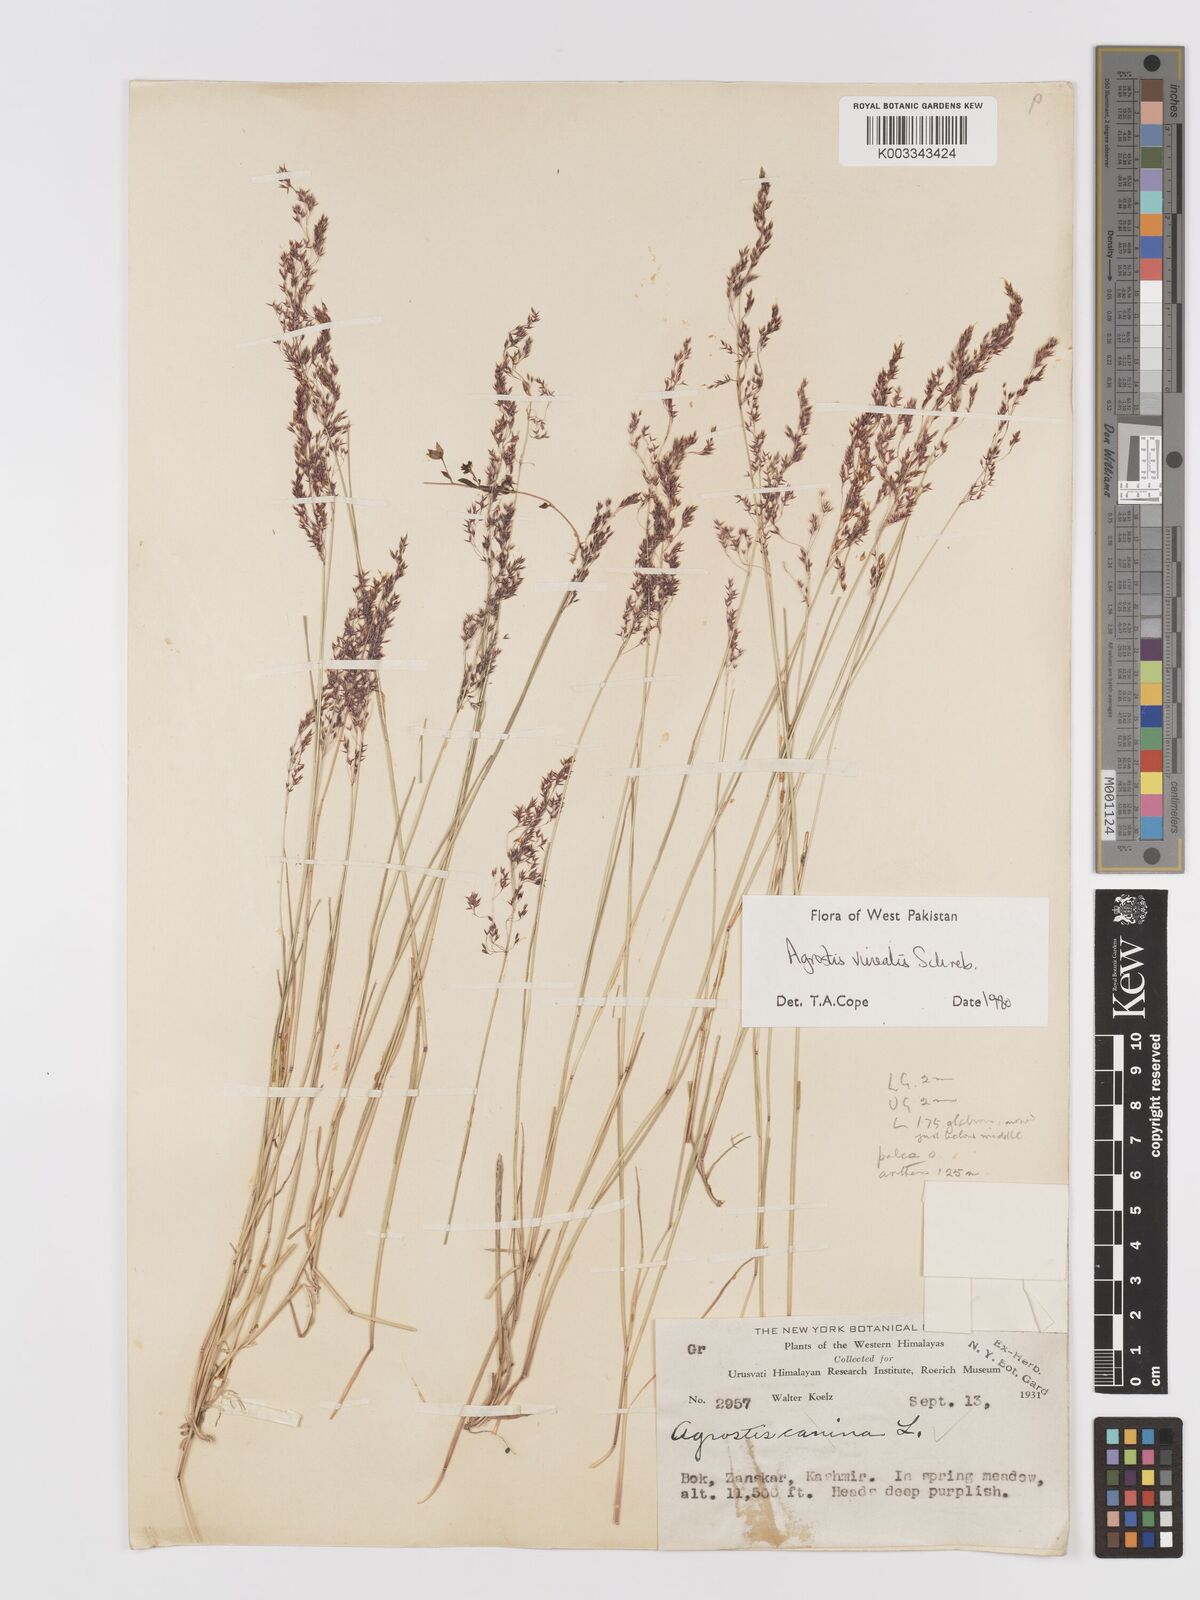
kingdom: Plantae
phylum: Tracheophyta
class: Liliopsida
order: Poales
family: Poaceae
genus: Agrostis
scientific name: Agrostis vinealis
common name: Brown bent
